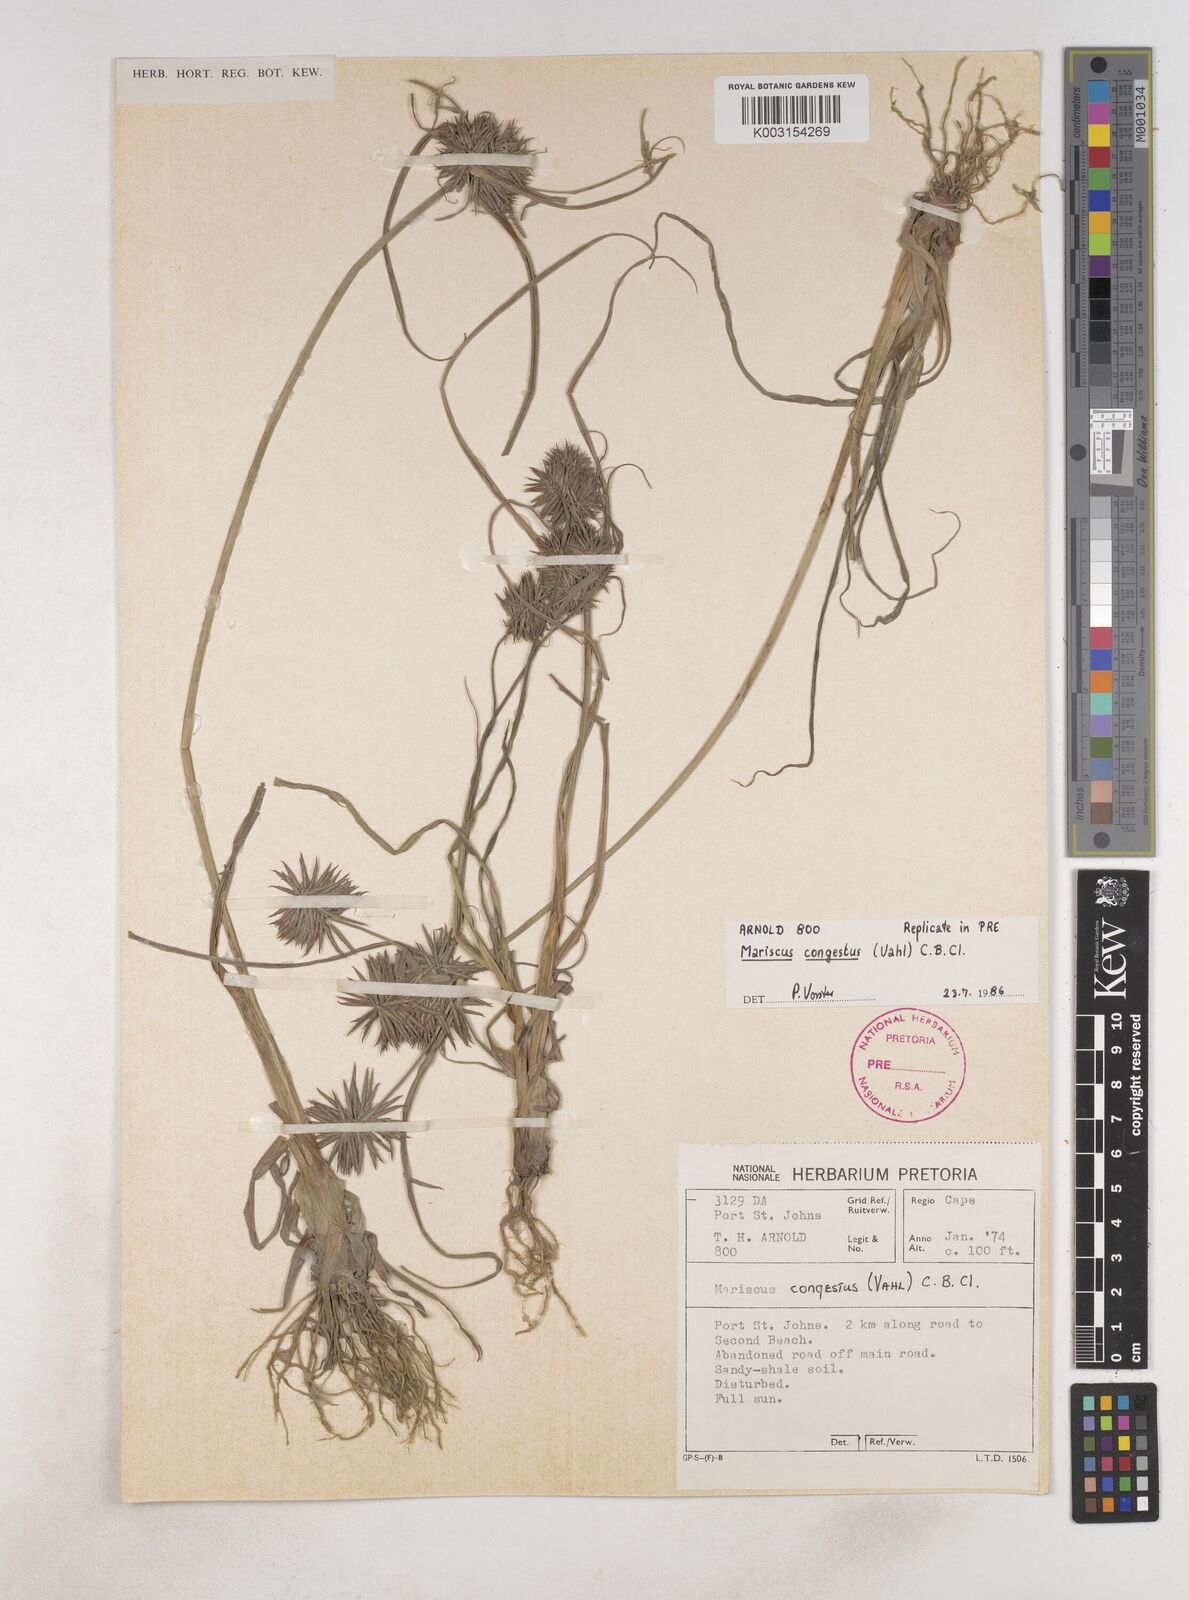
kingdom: Plantae
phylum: Tracheophyta
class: Liliopsida
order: Poales
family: Cyperaceae
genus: Cyperus
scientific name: Cyperus congestus
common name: Dense flat sedge
